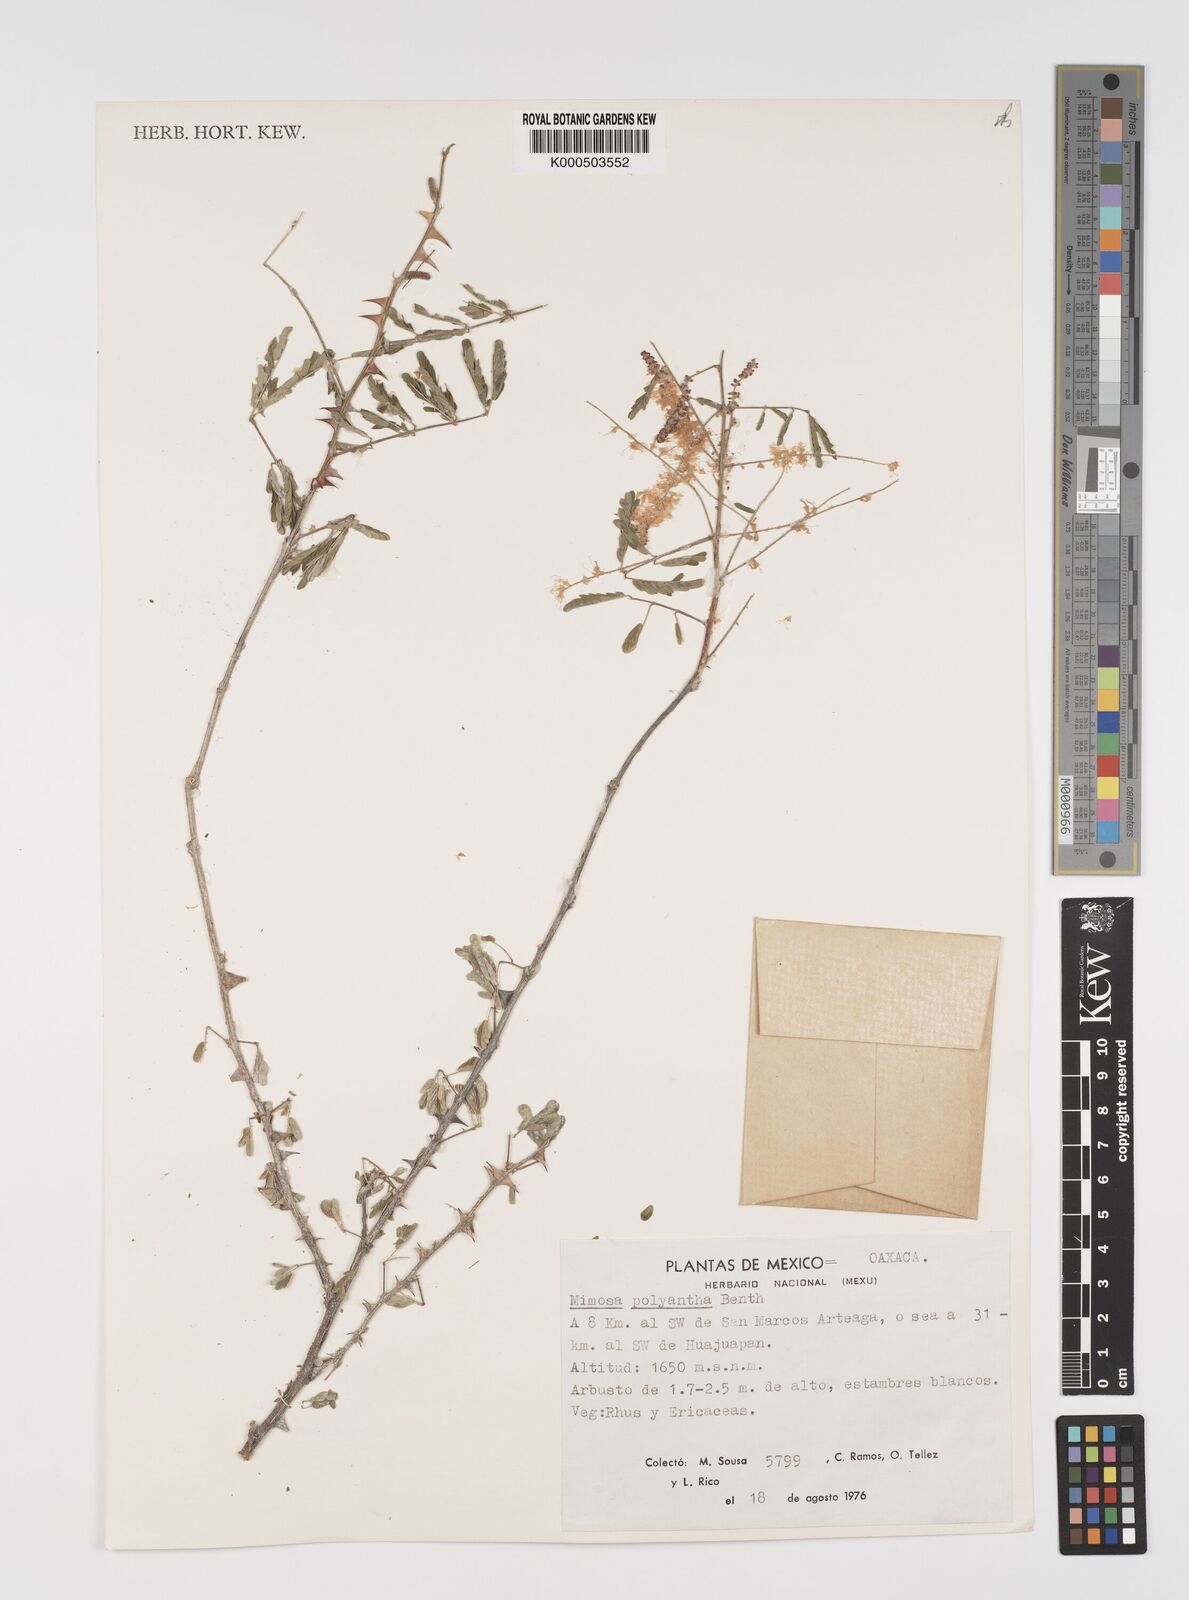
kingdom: Plantae
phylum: Tracheophyta
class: Magnoliopsida
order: Fabales
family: Fabaceae
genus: Mimosa
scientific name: Mimosa polyantha
